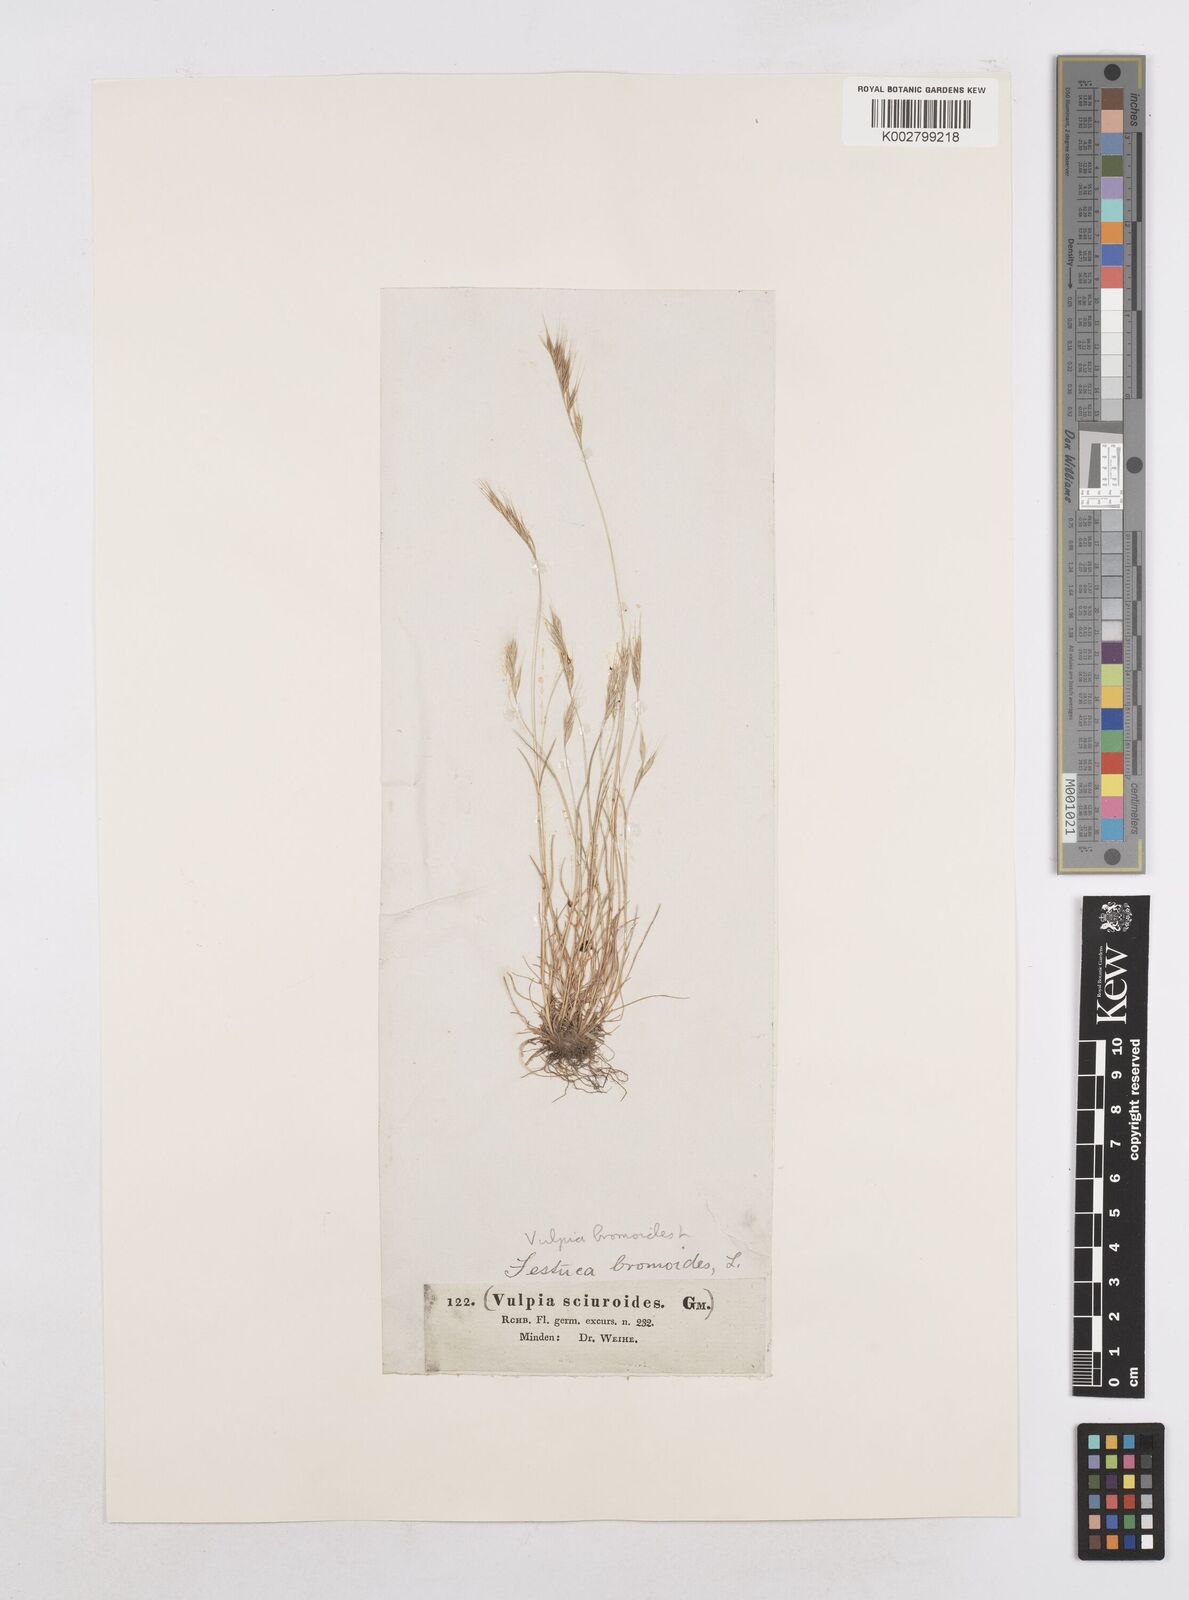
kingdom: Plantae
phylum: Tracheophyta
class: Liliopsida
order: Poales
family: Poaceae
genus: Festuca
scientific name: Festuca bromoides
